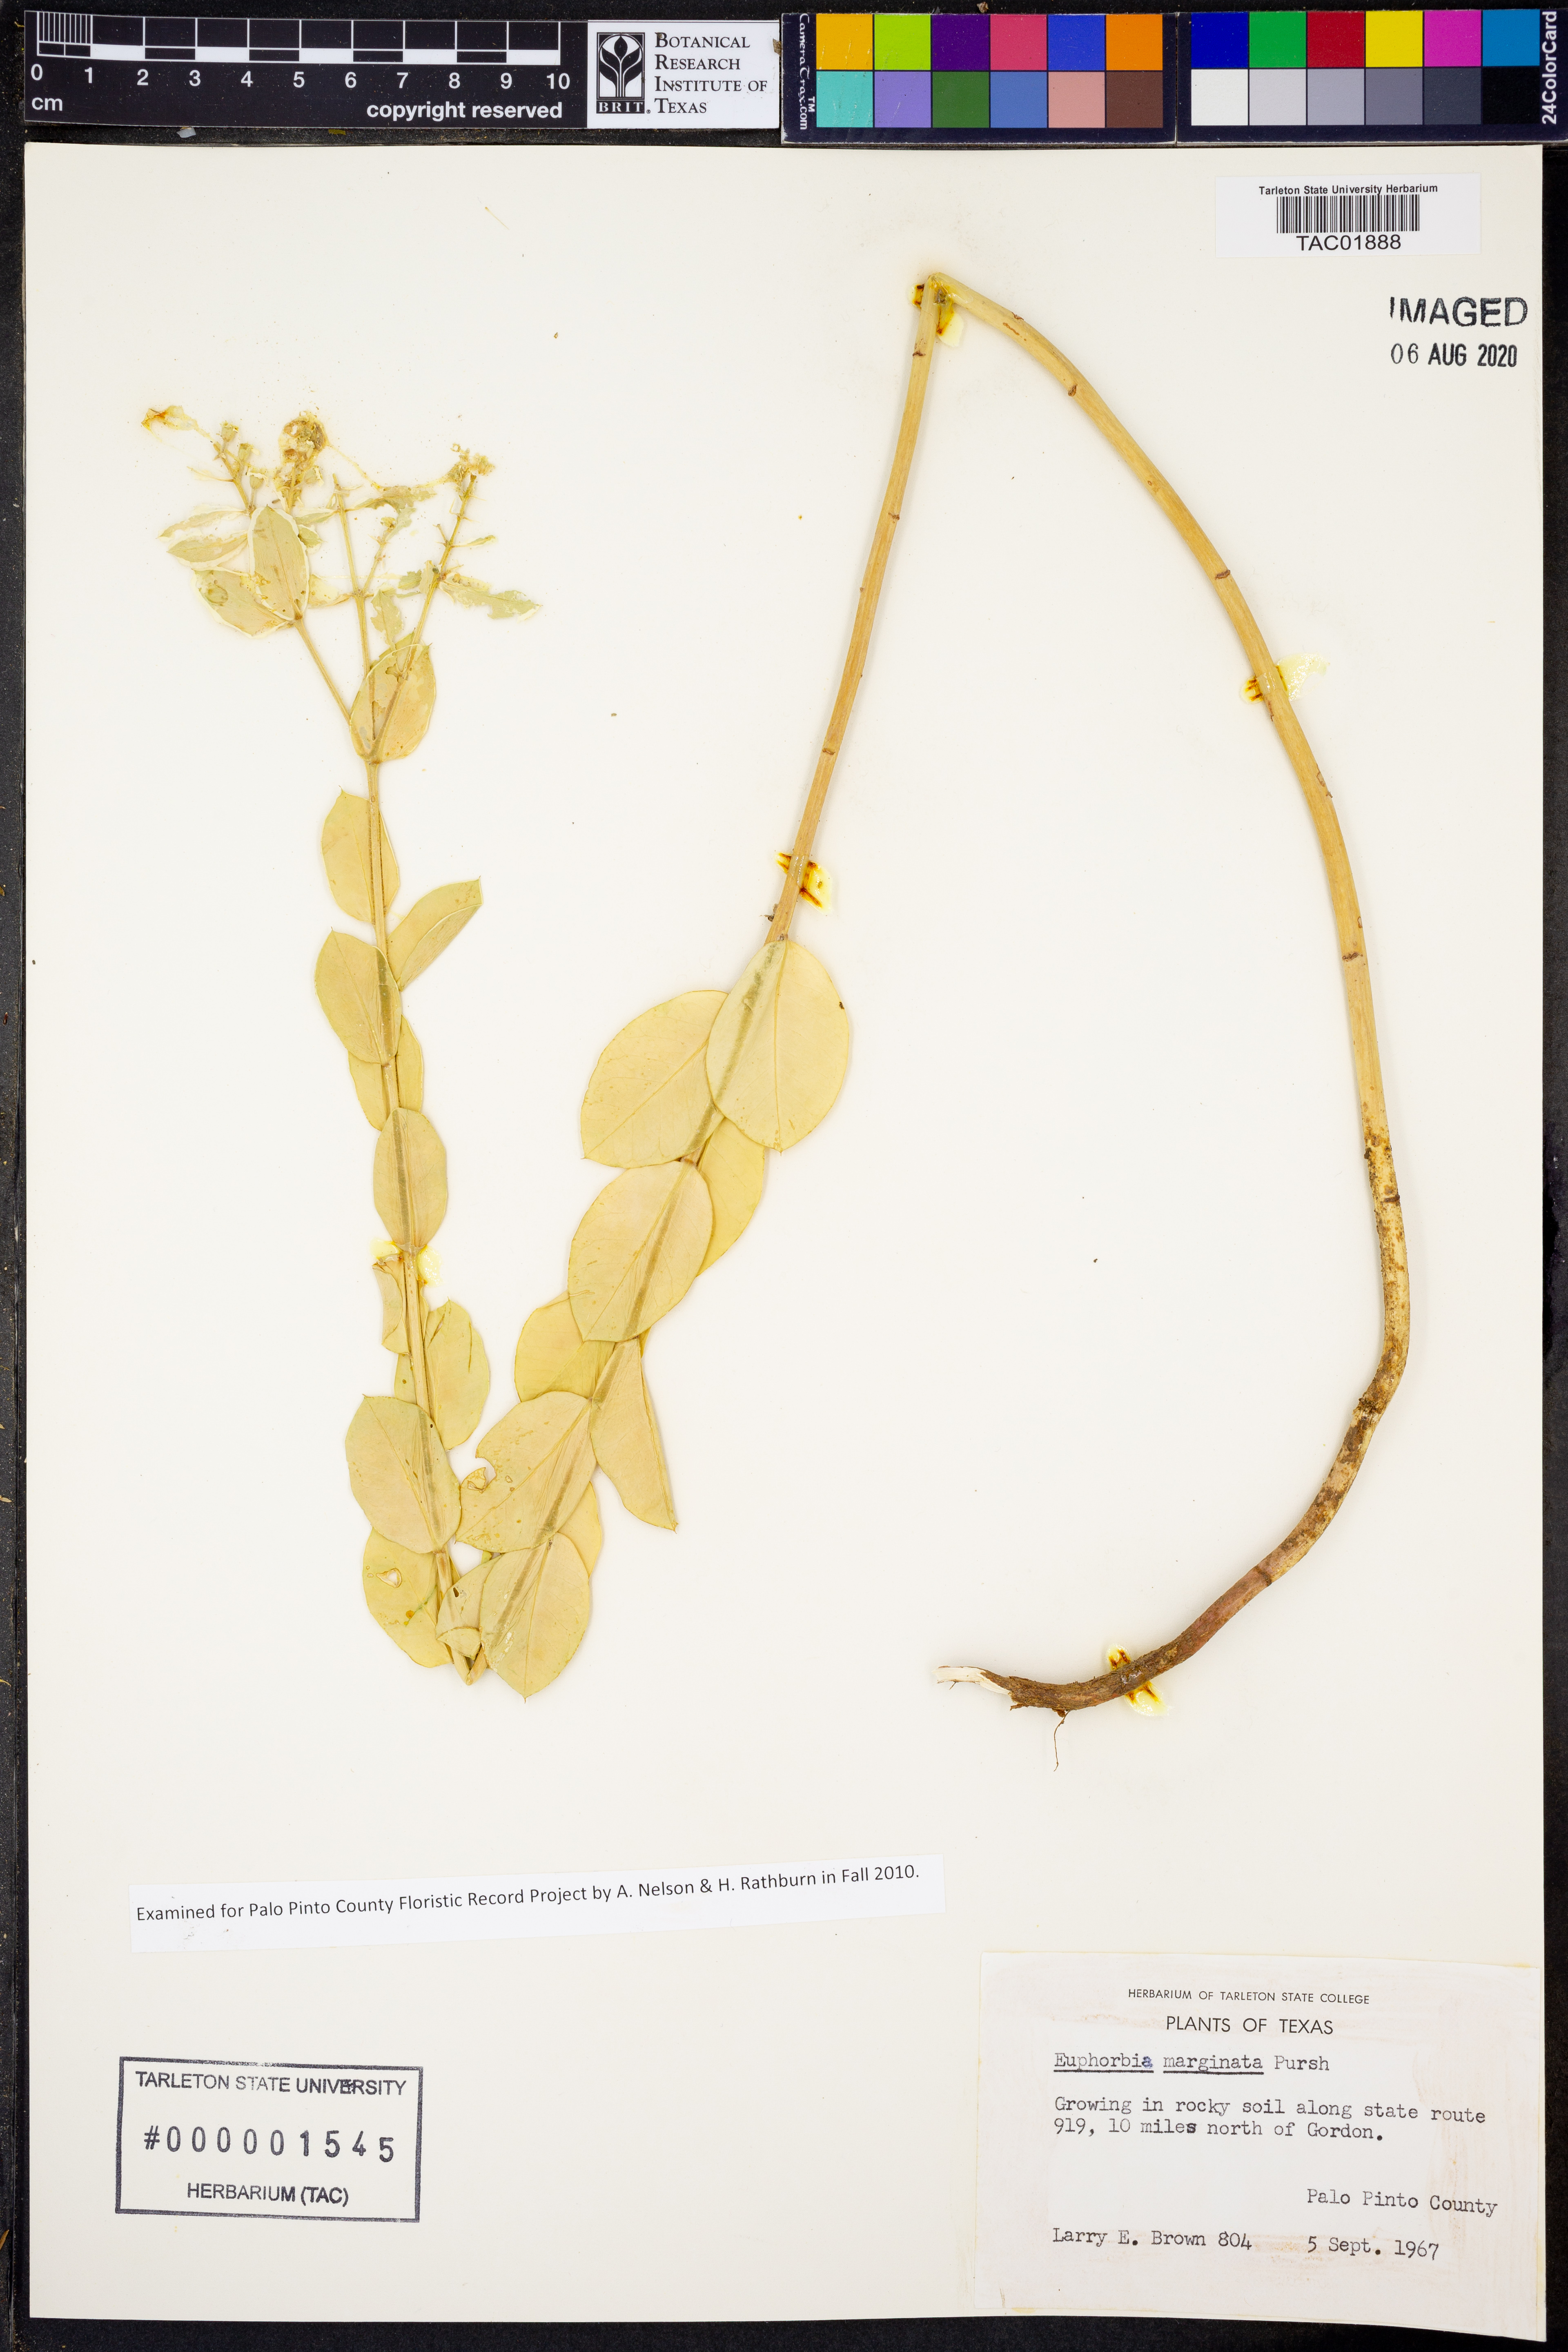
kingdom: Plantae
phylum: Tracheophyta
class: Magnoliopsida
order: Malpighiales
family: Euphorbiaceae
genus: Euphorbia
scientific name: Euphorbia marginata
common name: Ghostweed
